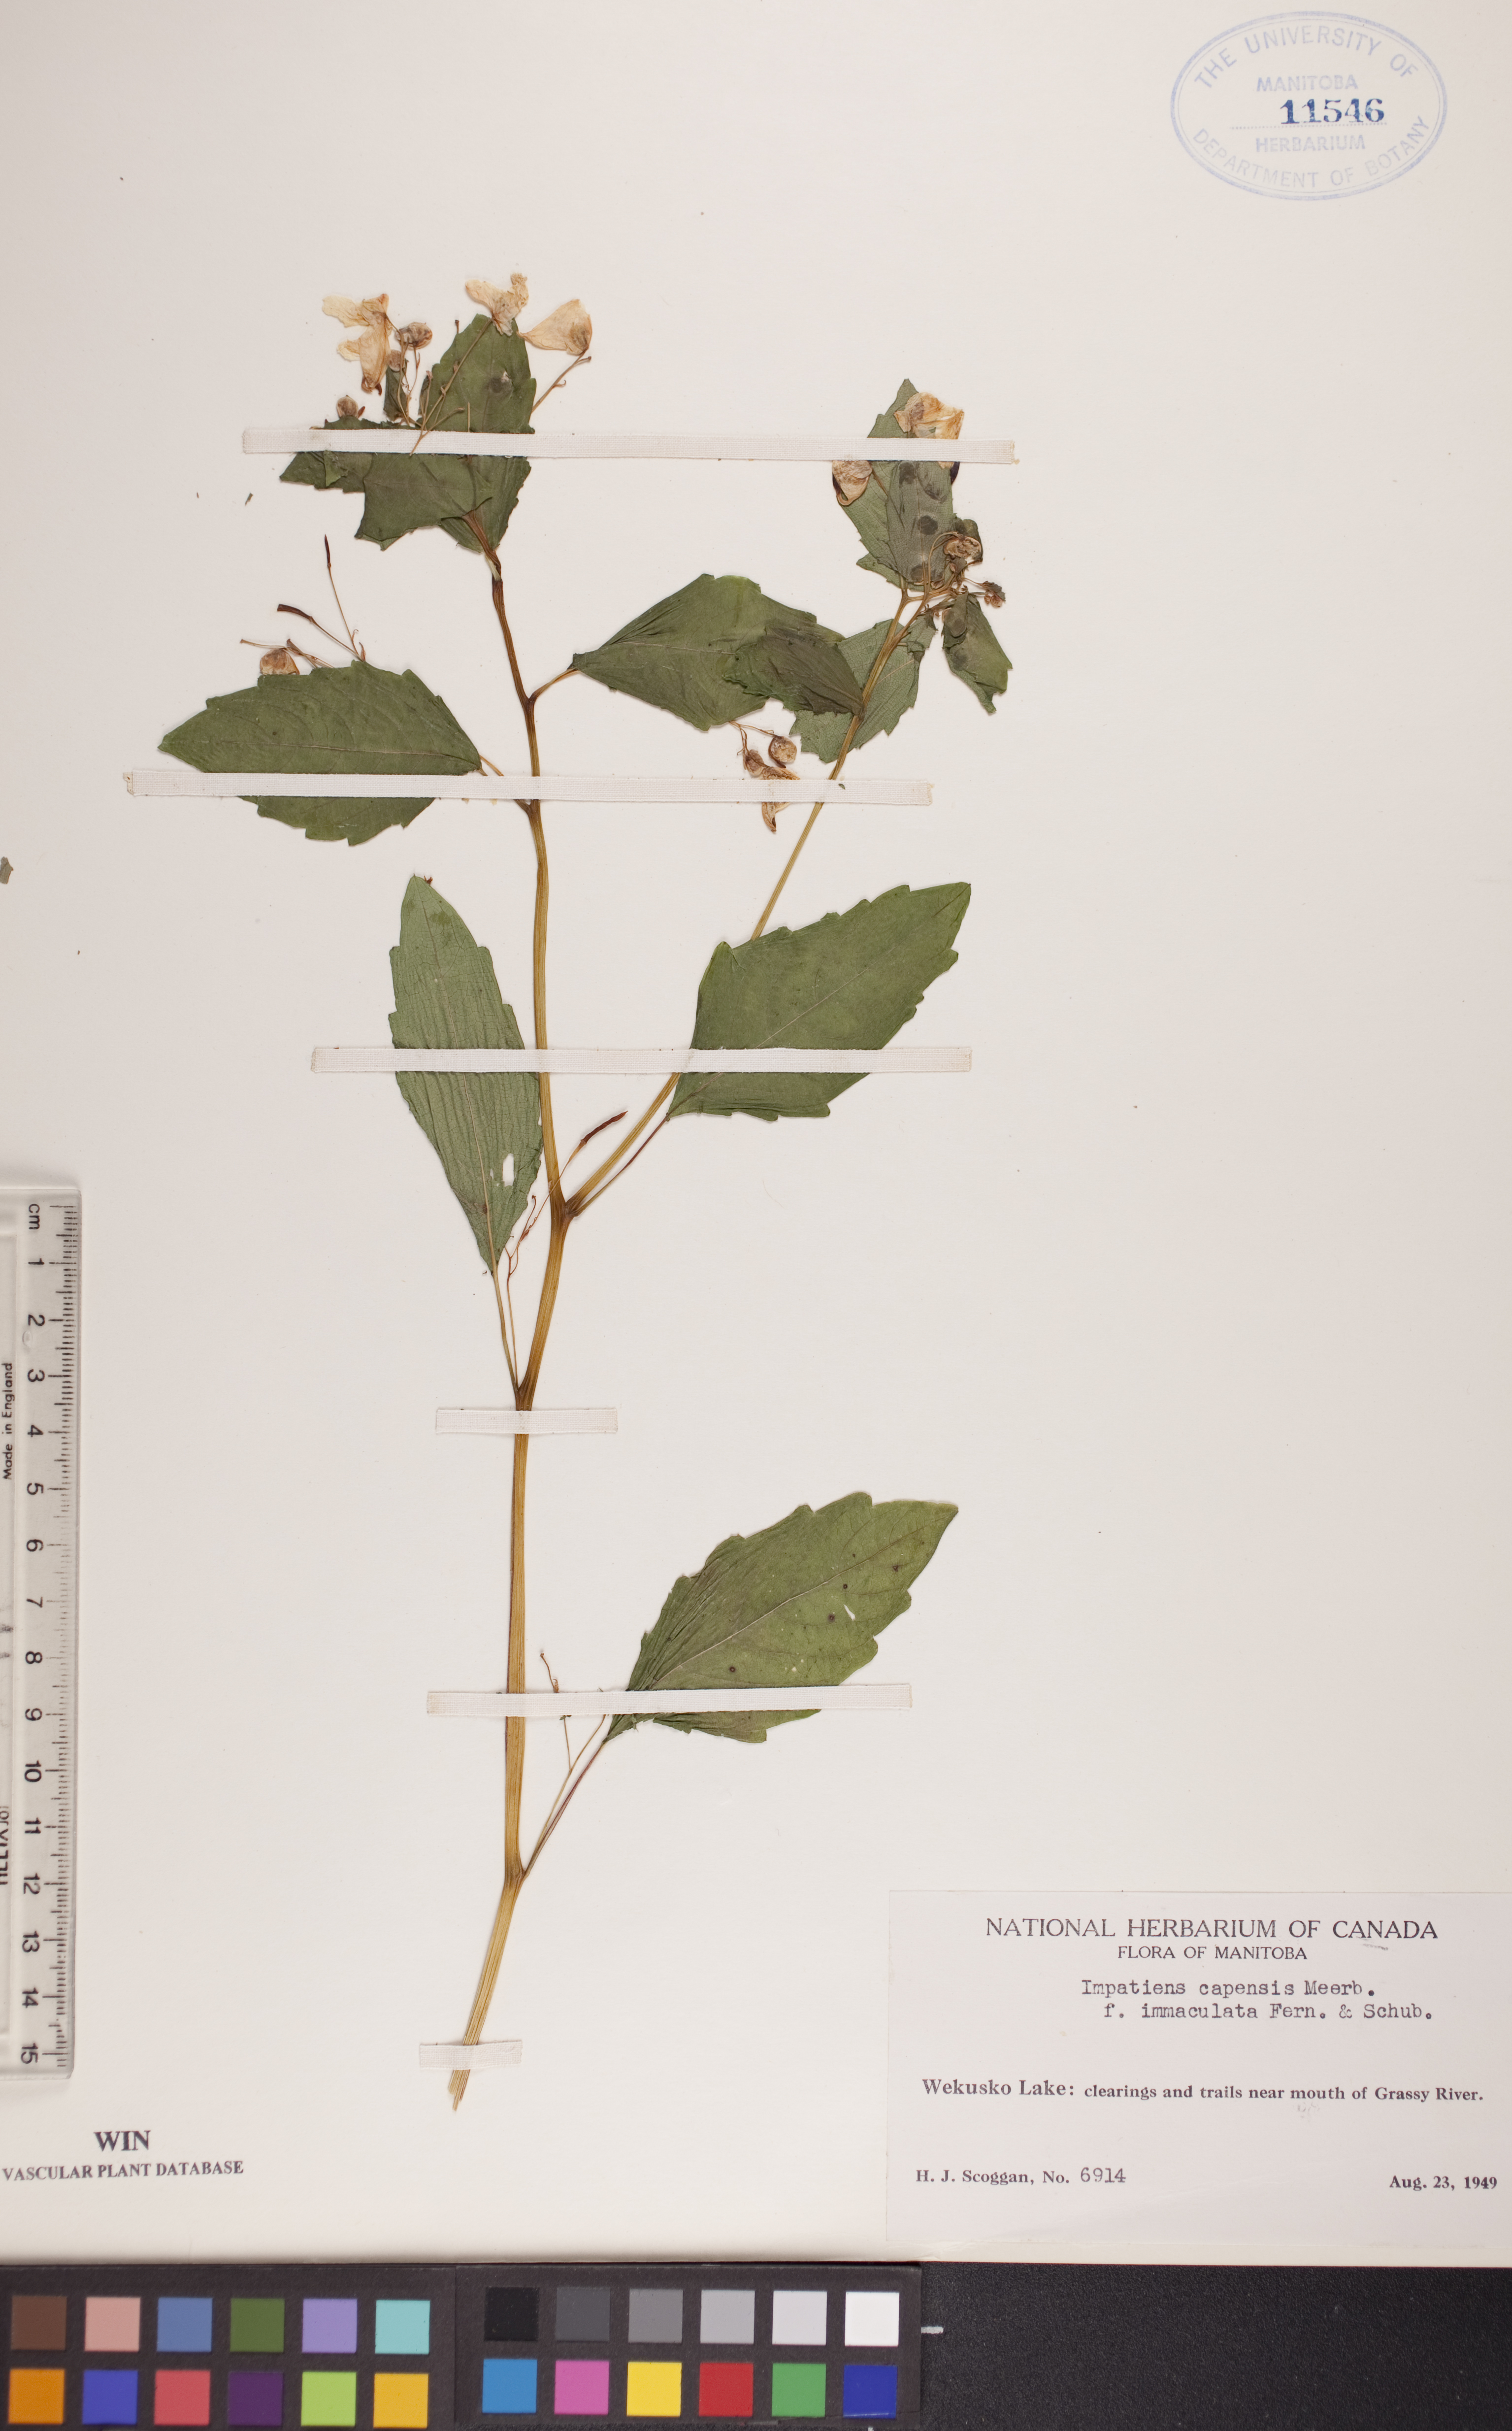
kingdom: Plantae
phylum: Tracheophyta
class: Magnoliopsida
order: Ericales
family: Balsaminaceae
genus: Impatiens
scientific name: Impatiens capensis
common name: Orange balsam
